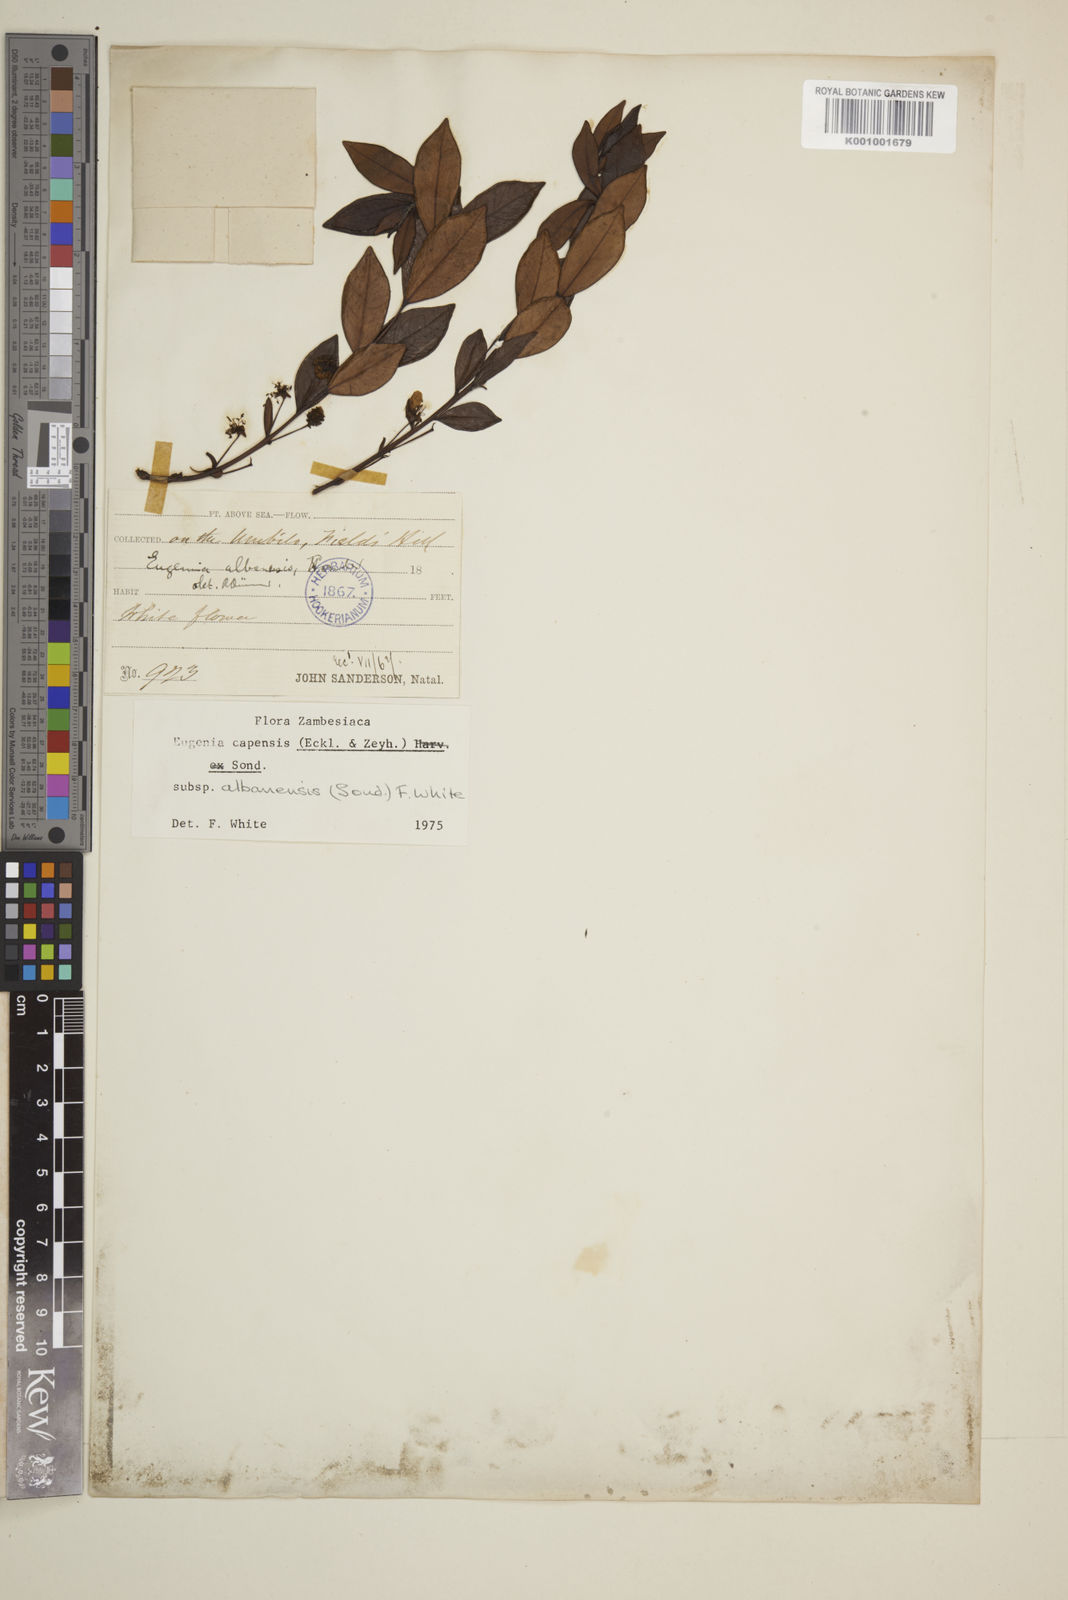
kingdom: Plantae
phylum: Tracheophyta
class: Magnoliopsida
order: Myrtales
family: Myrtaceae
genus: Eugenia
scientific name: Eugenia capensis
